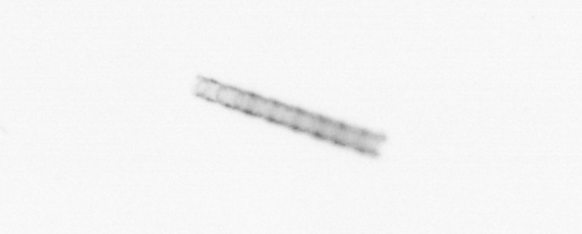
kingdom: Chromista
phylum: Ochrophyta
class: Bacillariophyceae
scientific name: Bacillariophyceae
